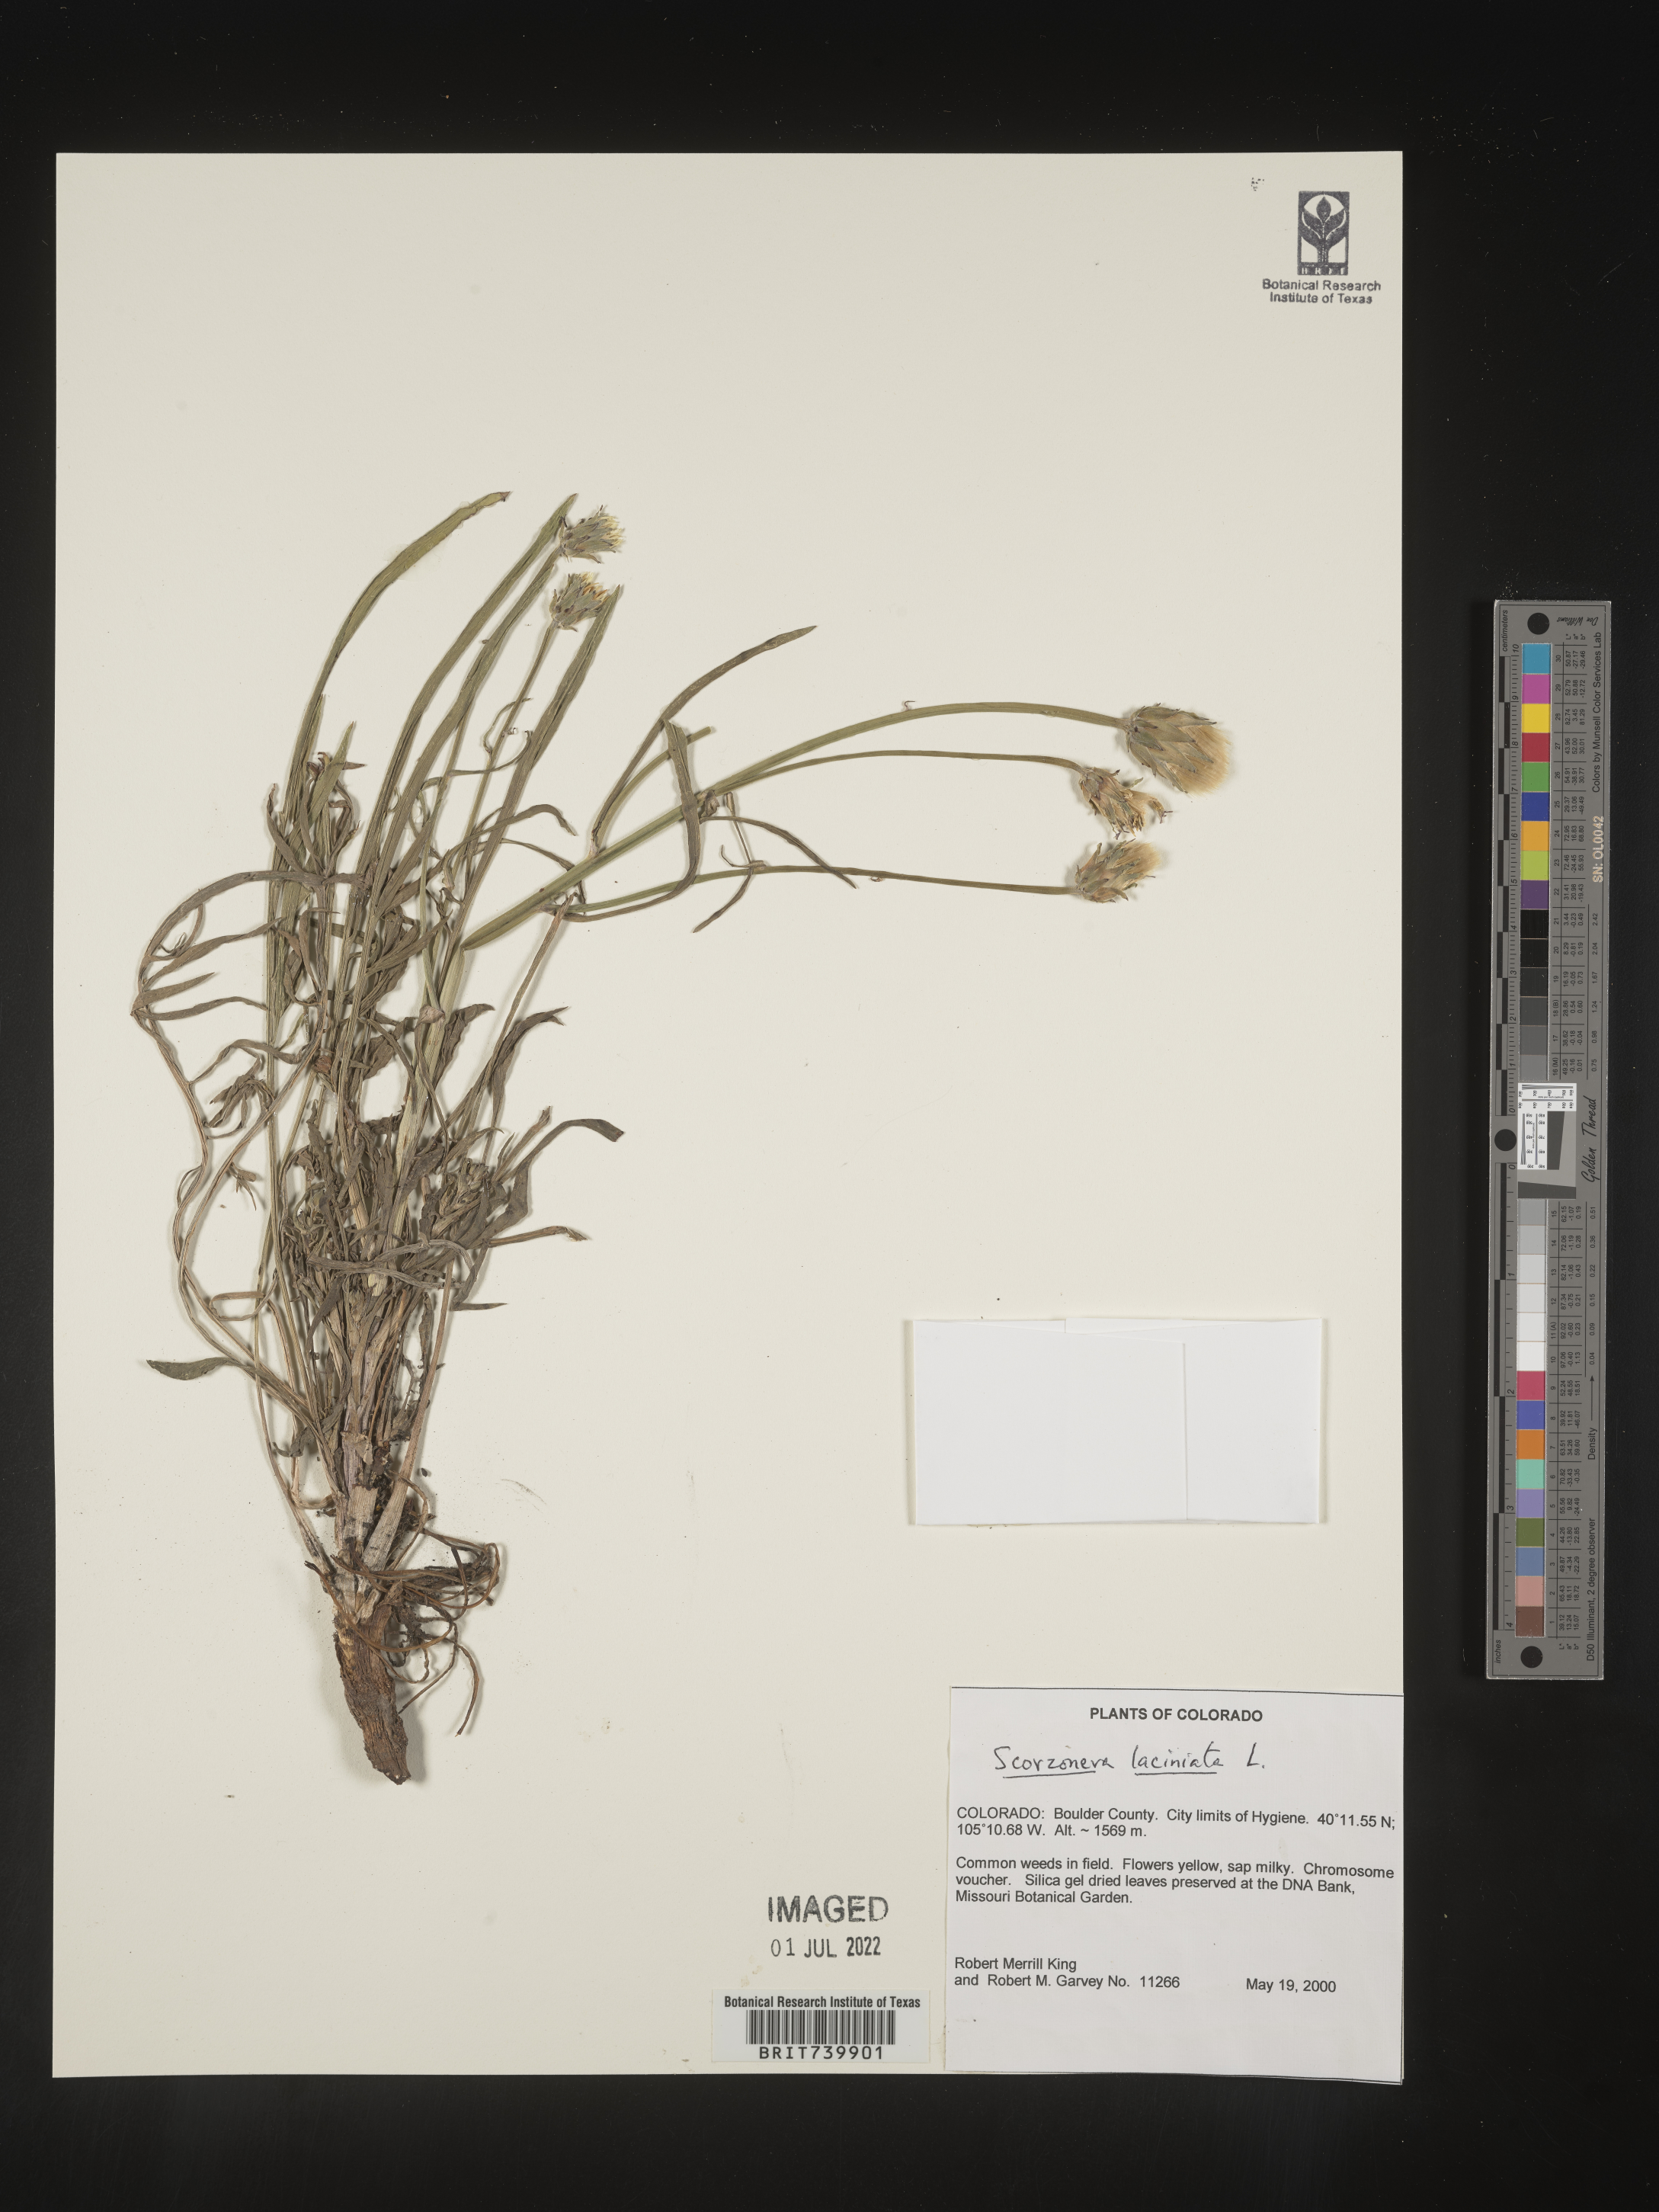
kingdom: Plantae
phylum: Tracheophyta
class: Magnoliopsida
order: Asterales
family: Asteraceae
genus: Scorzonera
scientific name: Scorzonera
